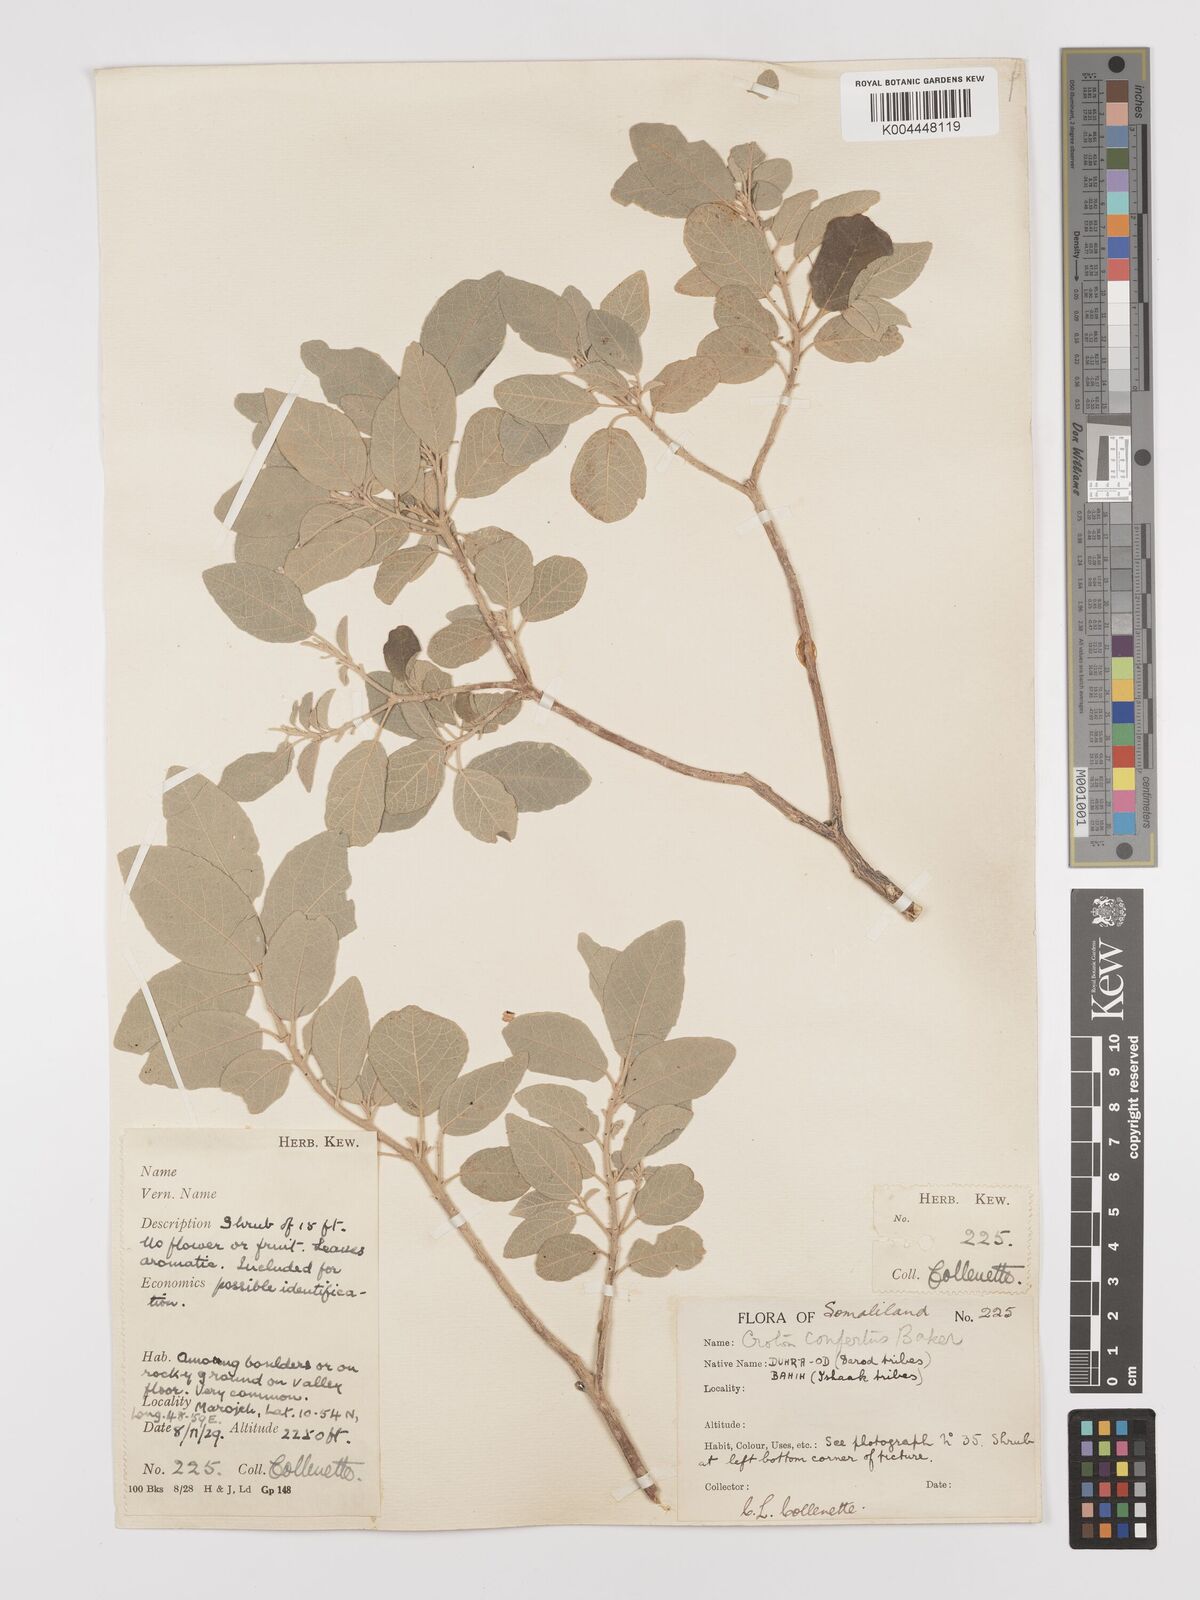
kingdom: Plantae
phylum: Tracheophyta
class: Magnoliopsida
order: Malpighiales
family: Euphorbiaceae
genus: Croton
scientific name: Croton confertus
